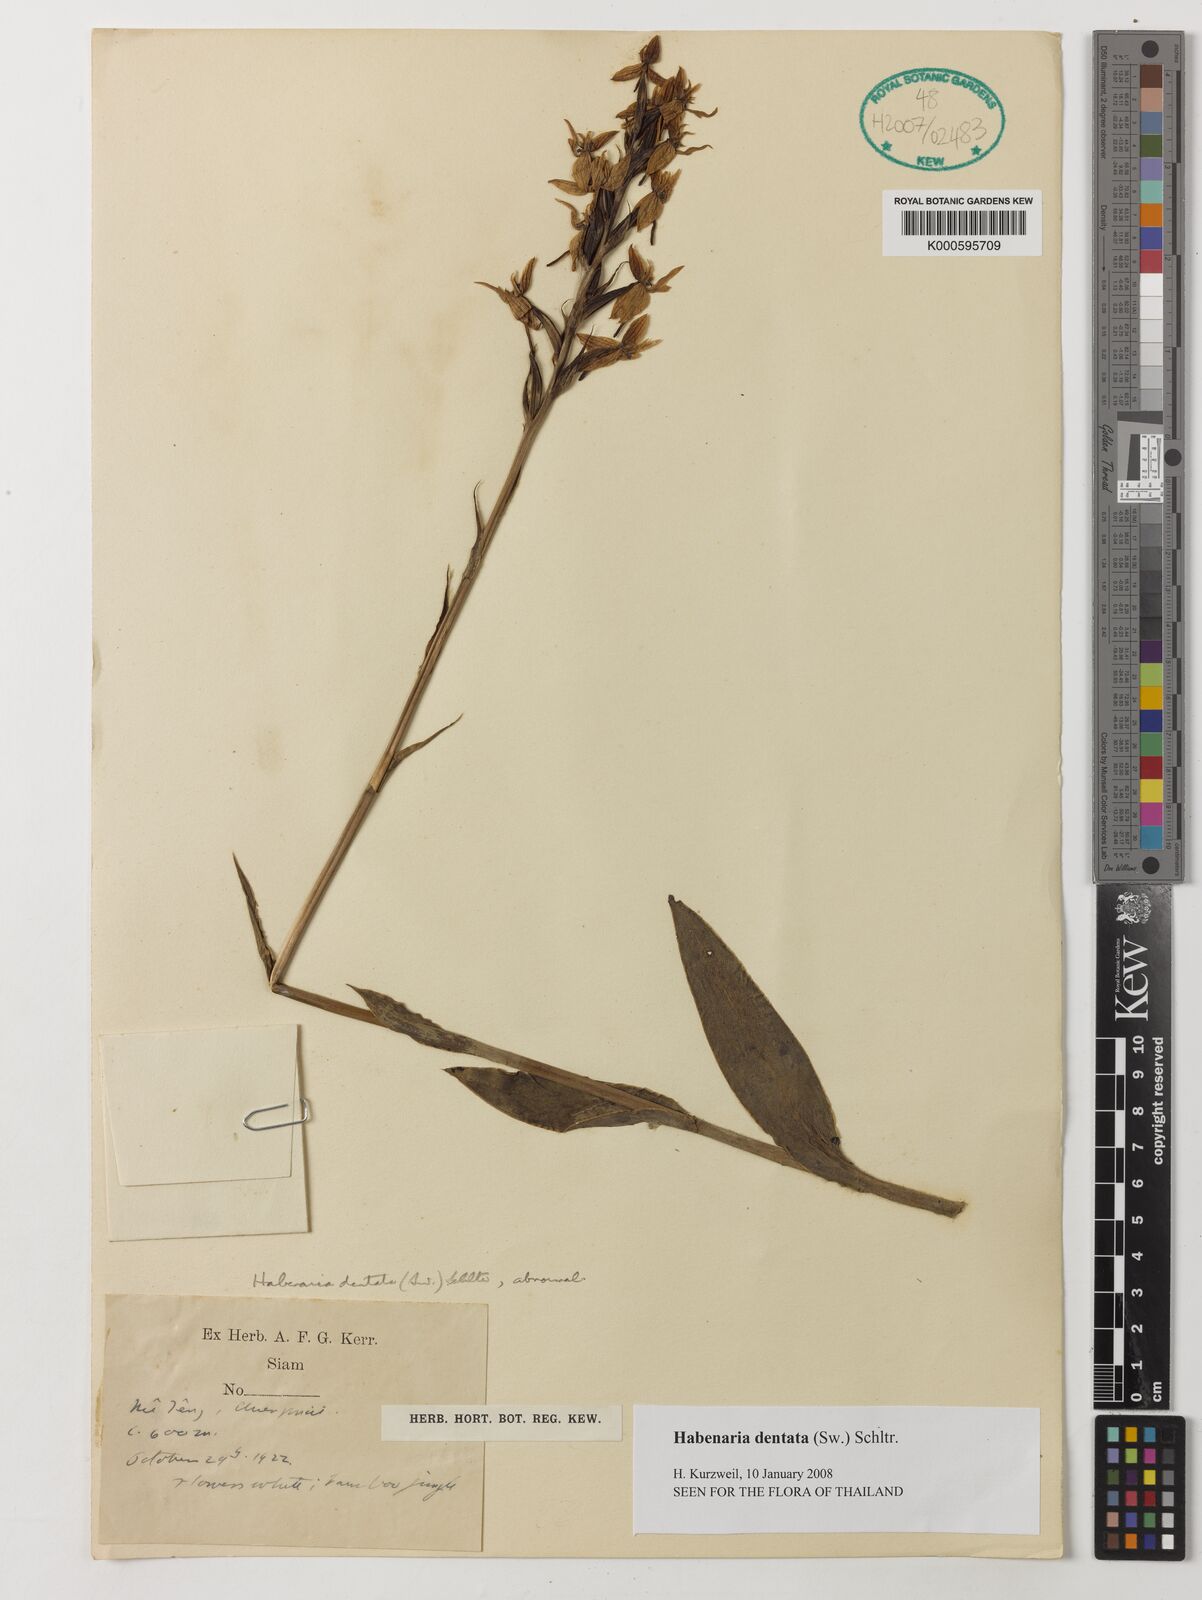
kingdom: Plantae
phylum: Tracheophyta
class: Liliopsida
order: Asparagales
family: Orchidaceae
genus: Habenaria
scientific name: Habenaria dentata
